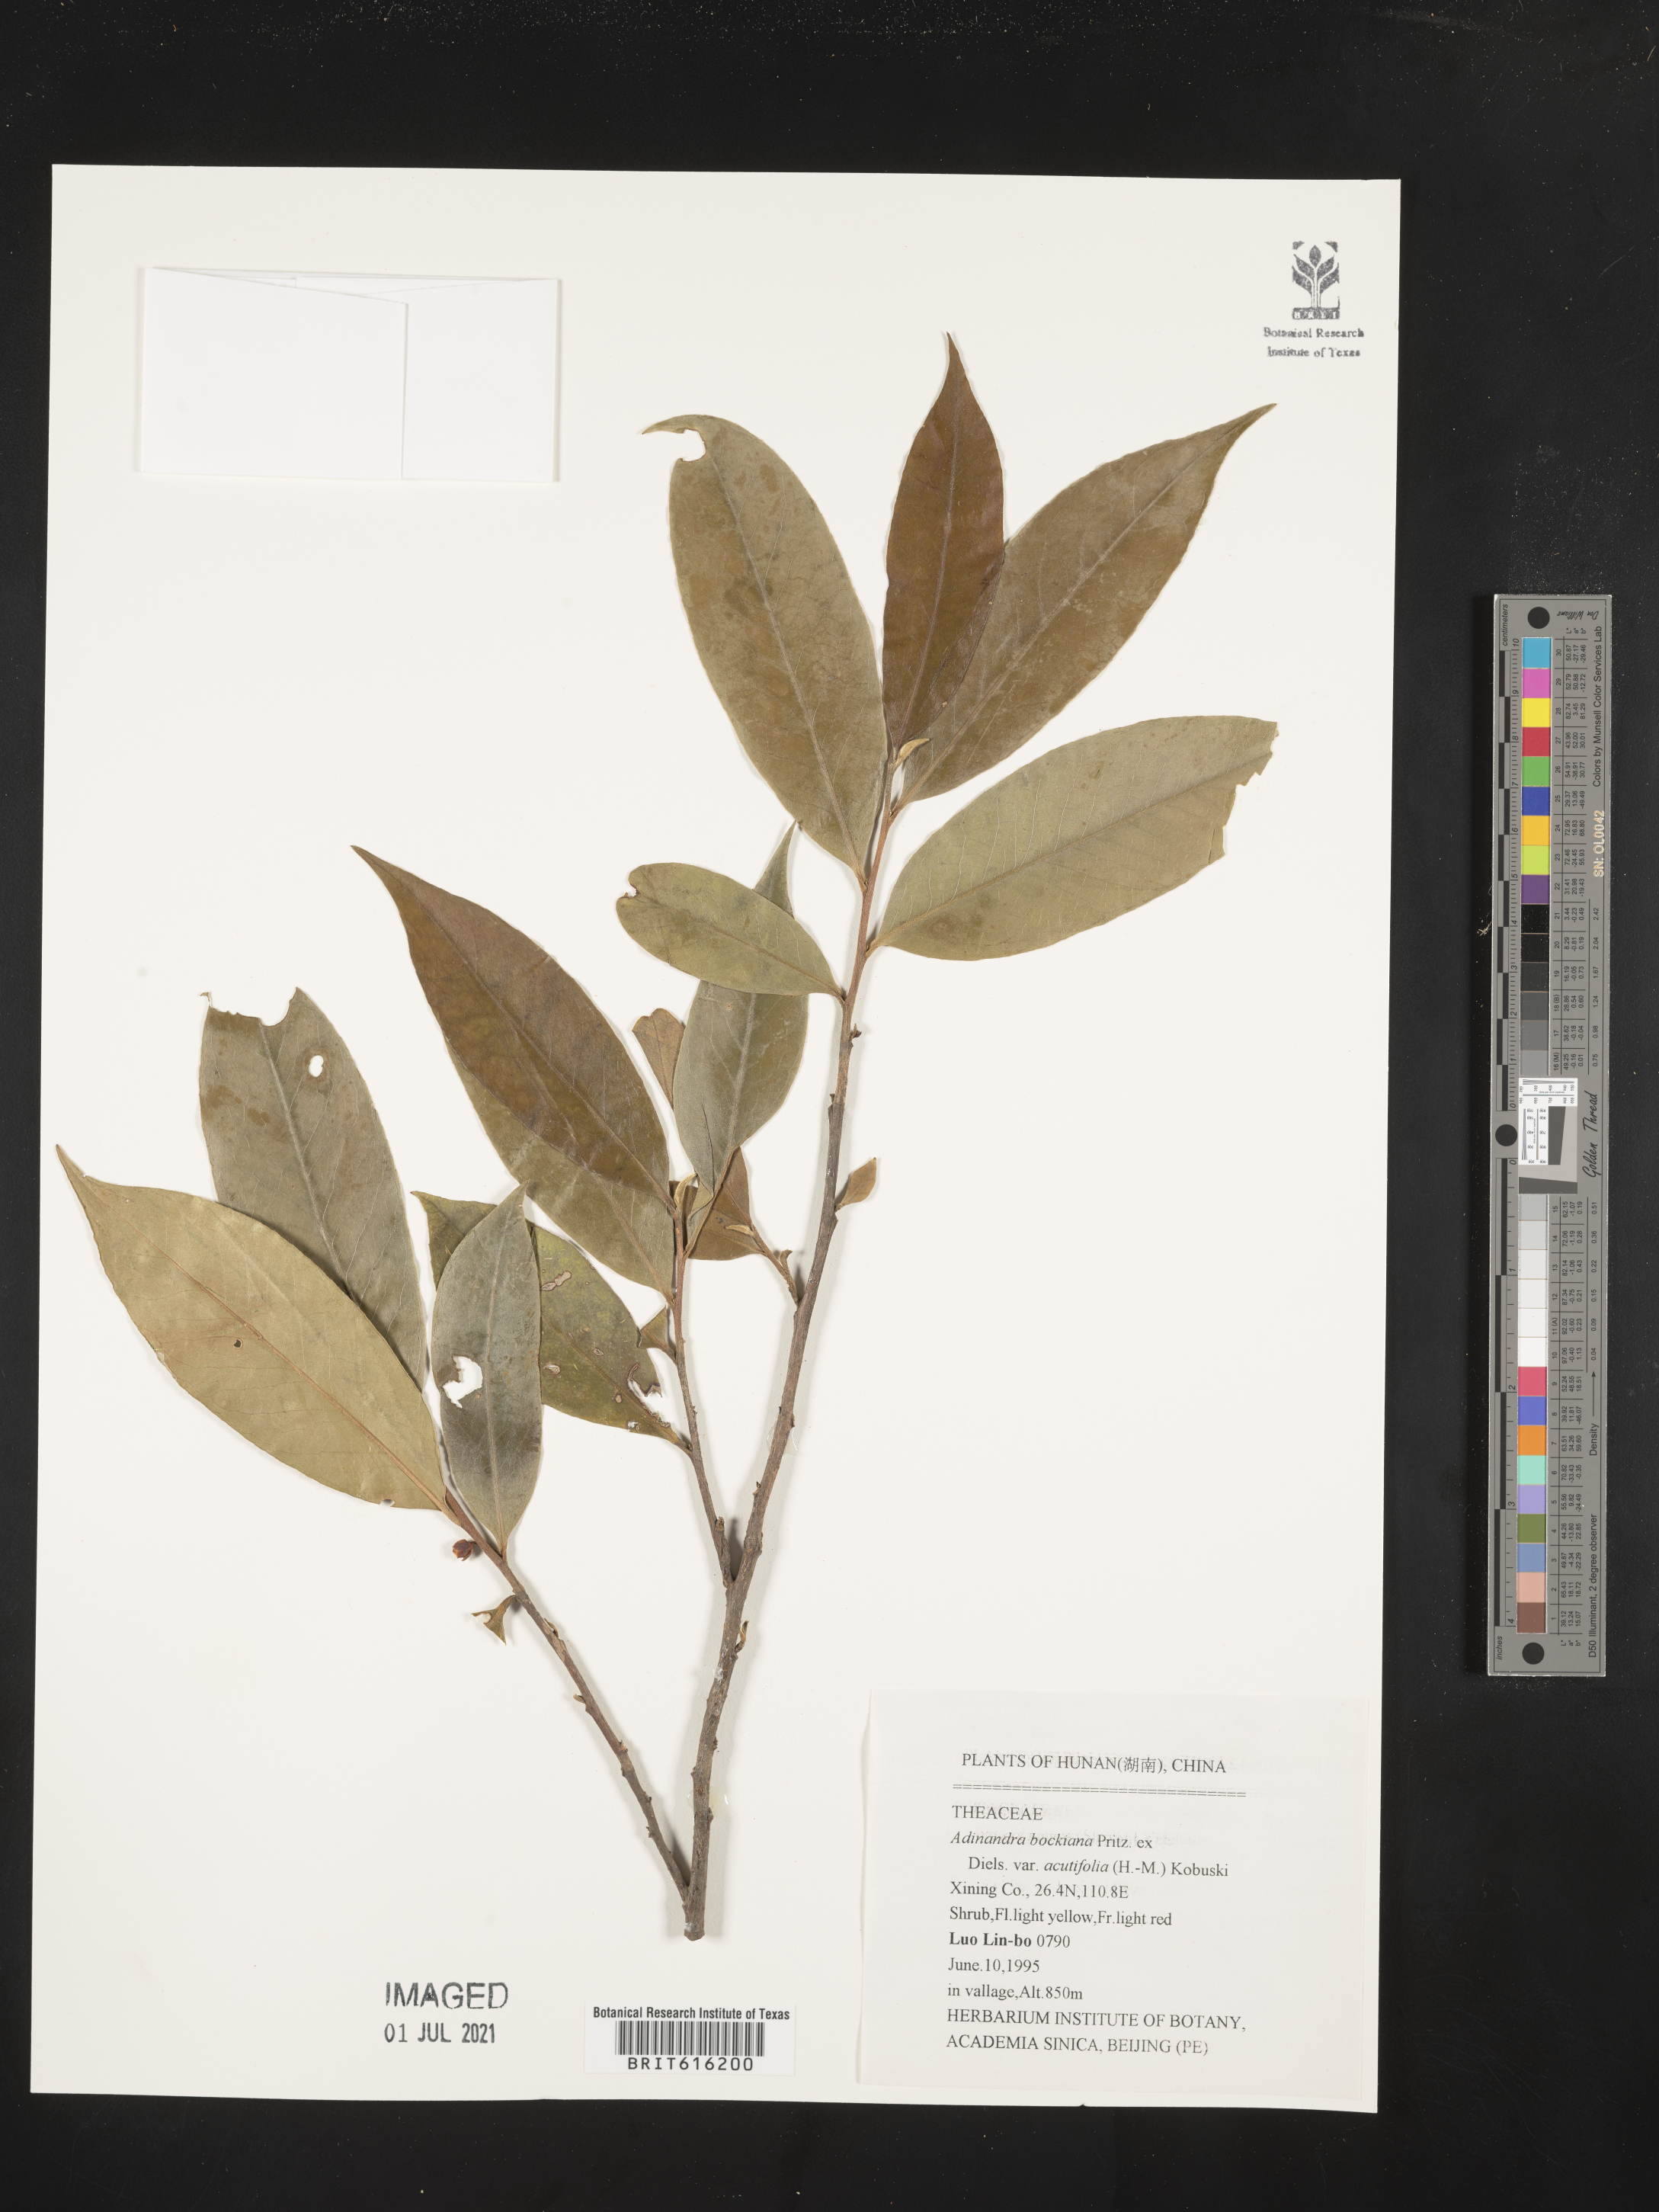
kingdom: Plantae
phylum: Tracheophyta
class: Magnoliopsida
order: Ericales
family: Pentaphylacaceae
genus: Adinandra
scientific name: Adinandra bockiana
